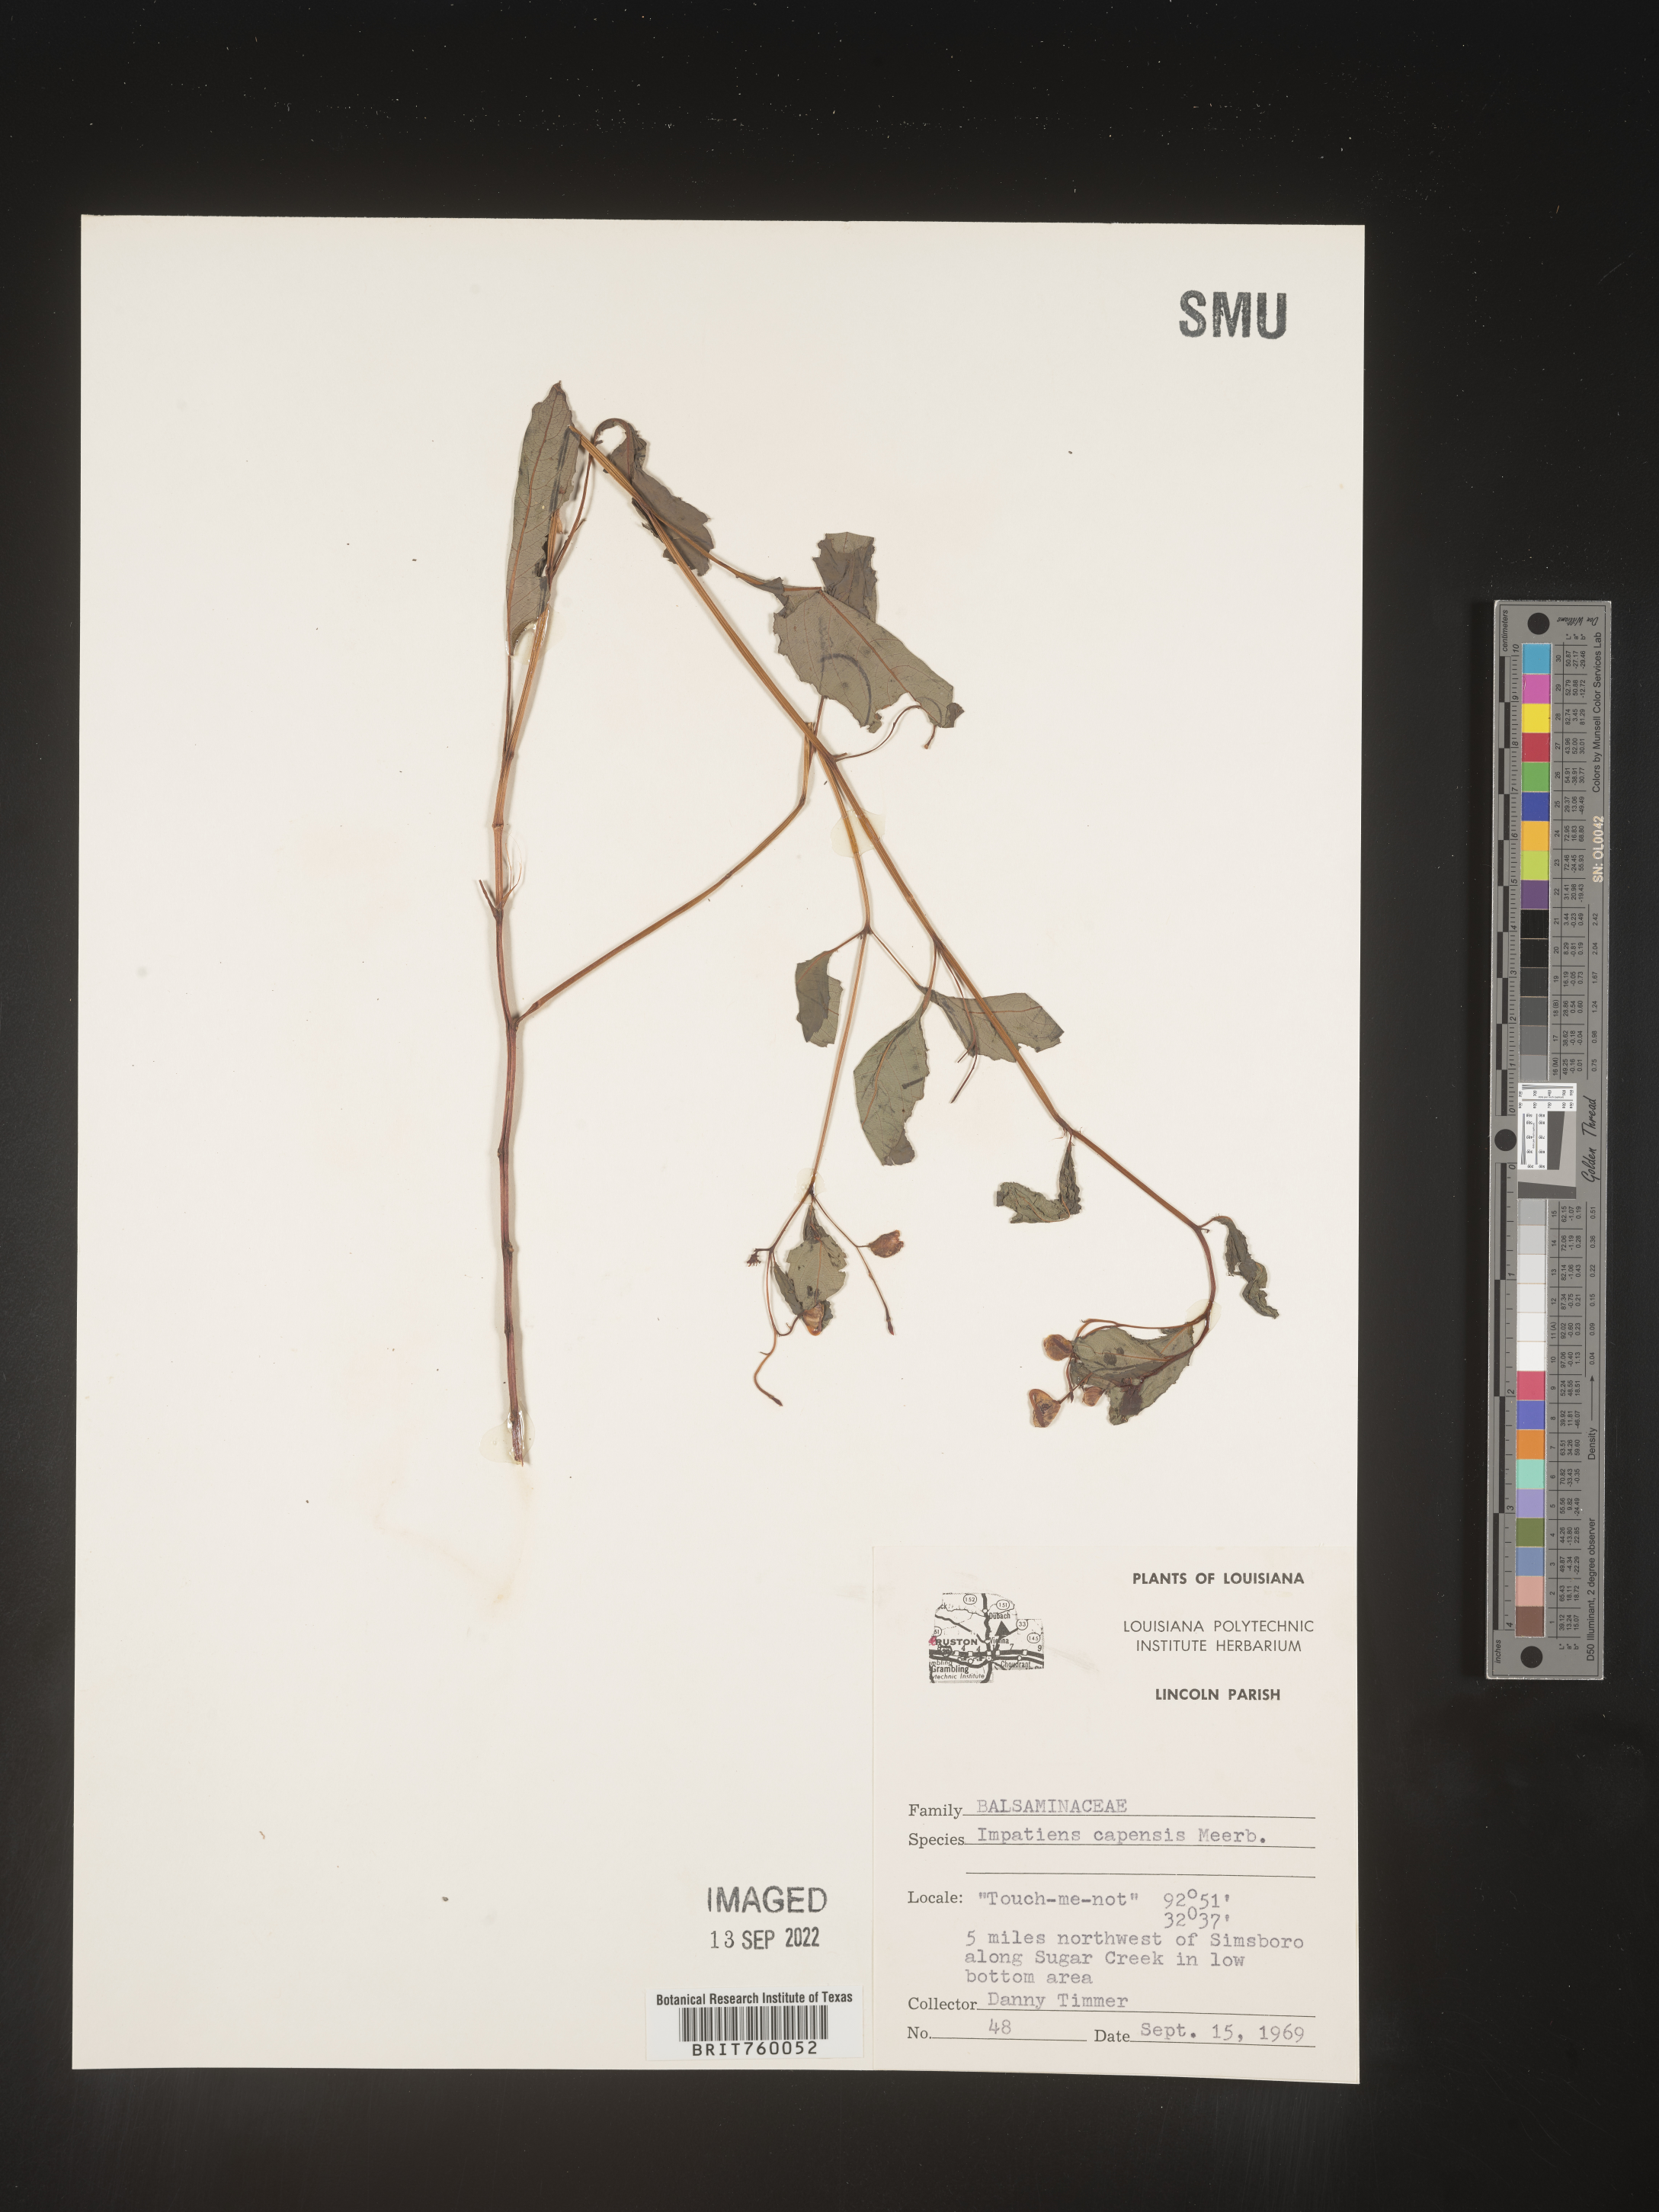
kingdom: Plantae
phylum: Tracheophyta
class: Magnoliopsida
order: Ericales
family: Balsaminaceae
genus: Impatiens
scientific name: Impatiens capensis
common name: Orange balsam
